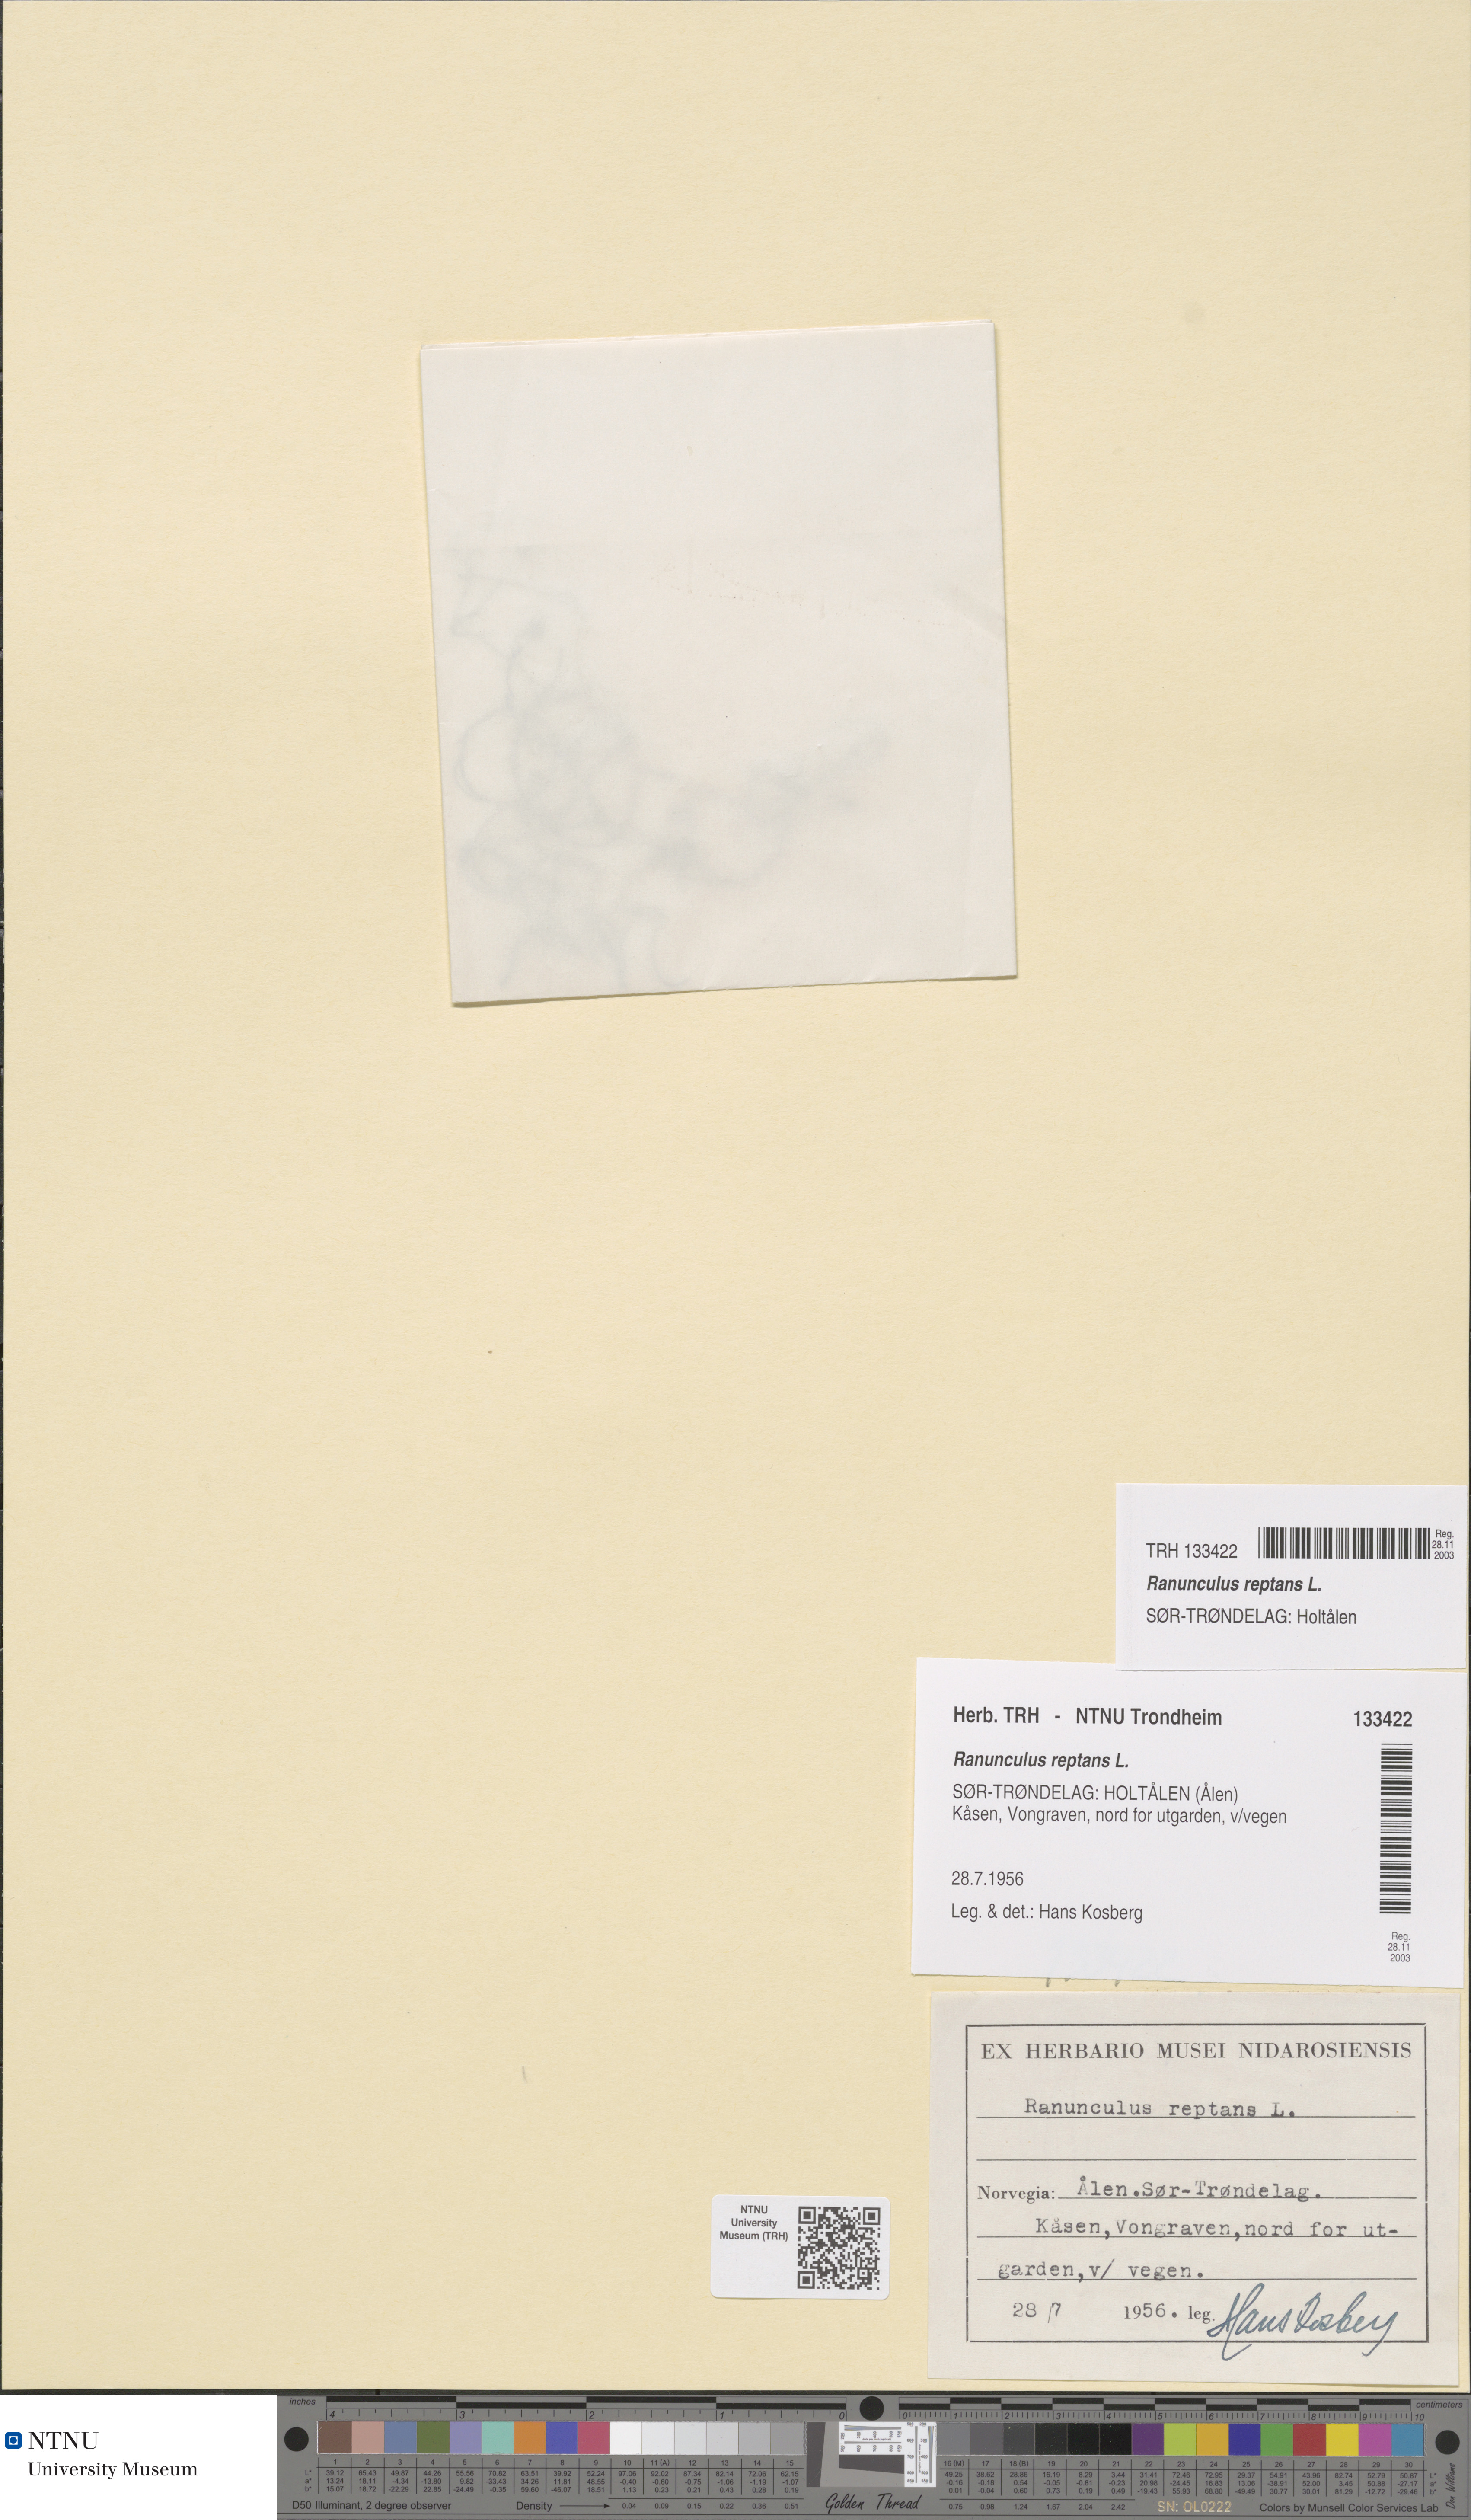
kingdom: Plantae
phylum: Tracheophyta
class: Magnoliopsida
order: Ranunculales
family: Ranunculaceae
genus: Ranunculus
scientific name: Ranunculus reptans
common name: Creeping spearwort
